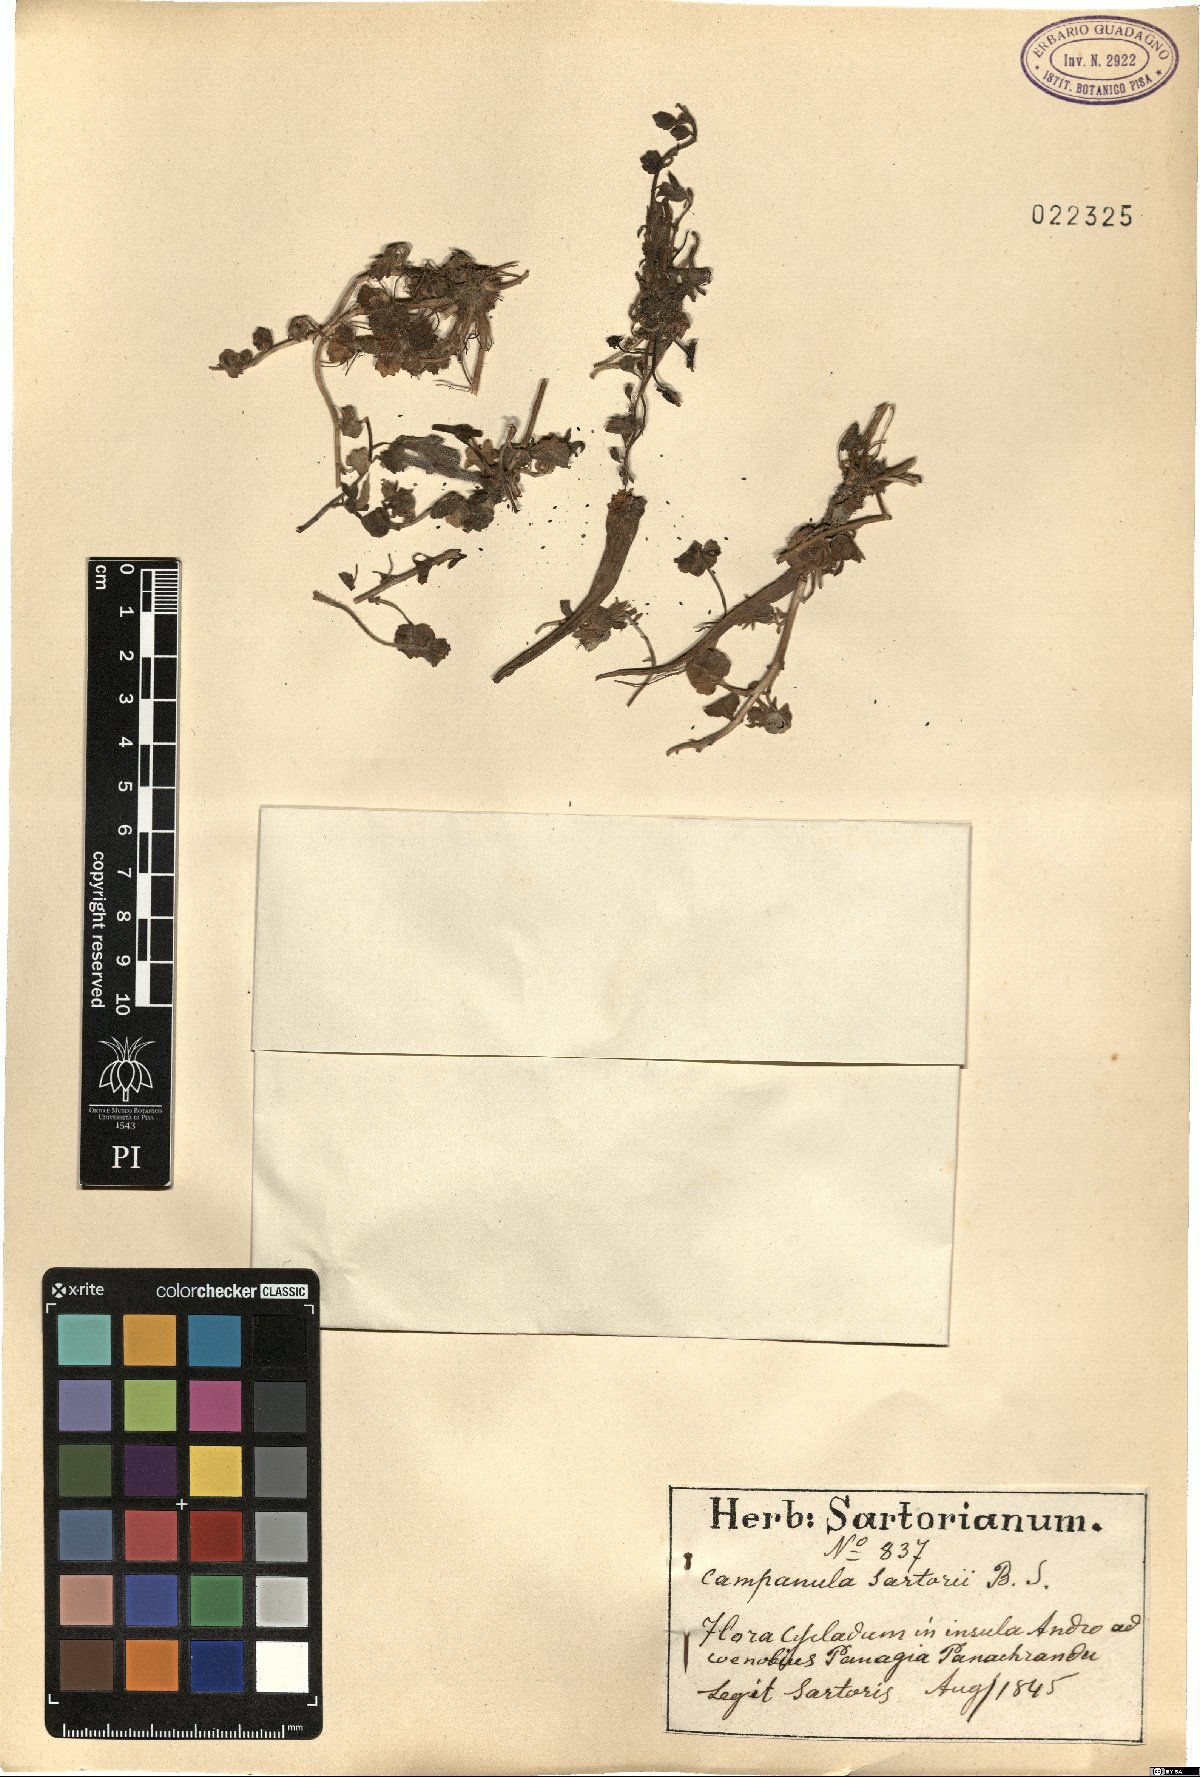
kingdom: Plantae
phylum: Tracheophyta
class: Magnoliopsida
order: Asterales
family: Campanulaceae
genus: Campanula
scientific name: Campanula sartorii
